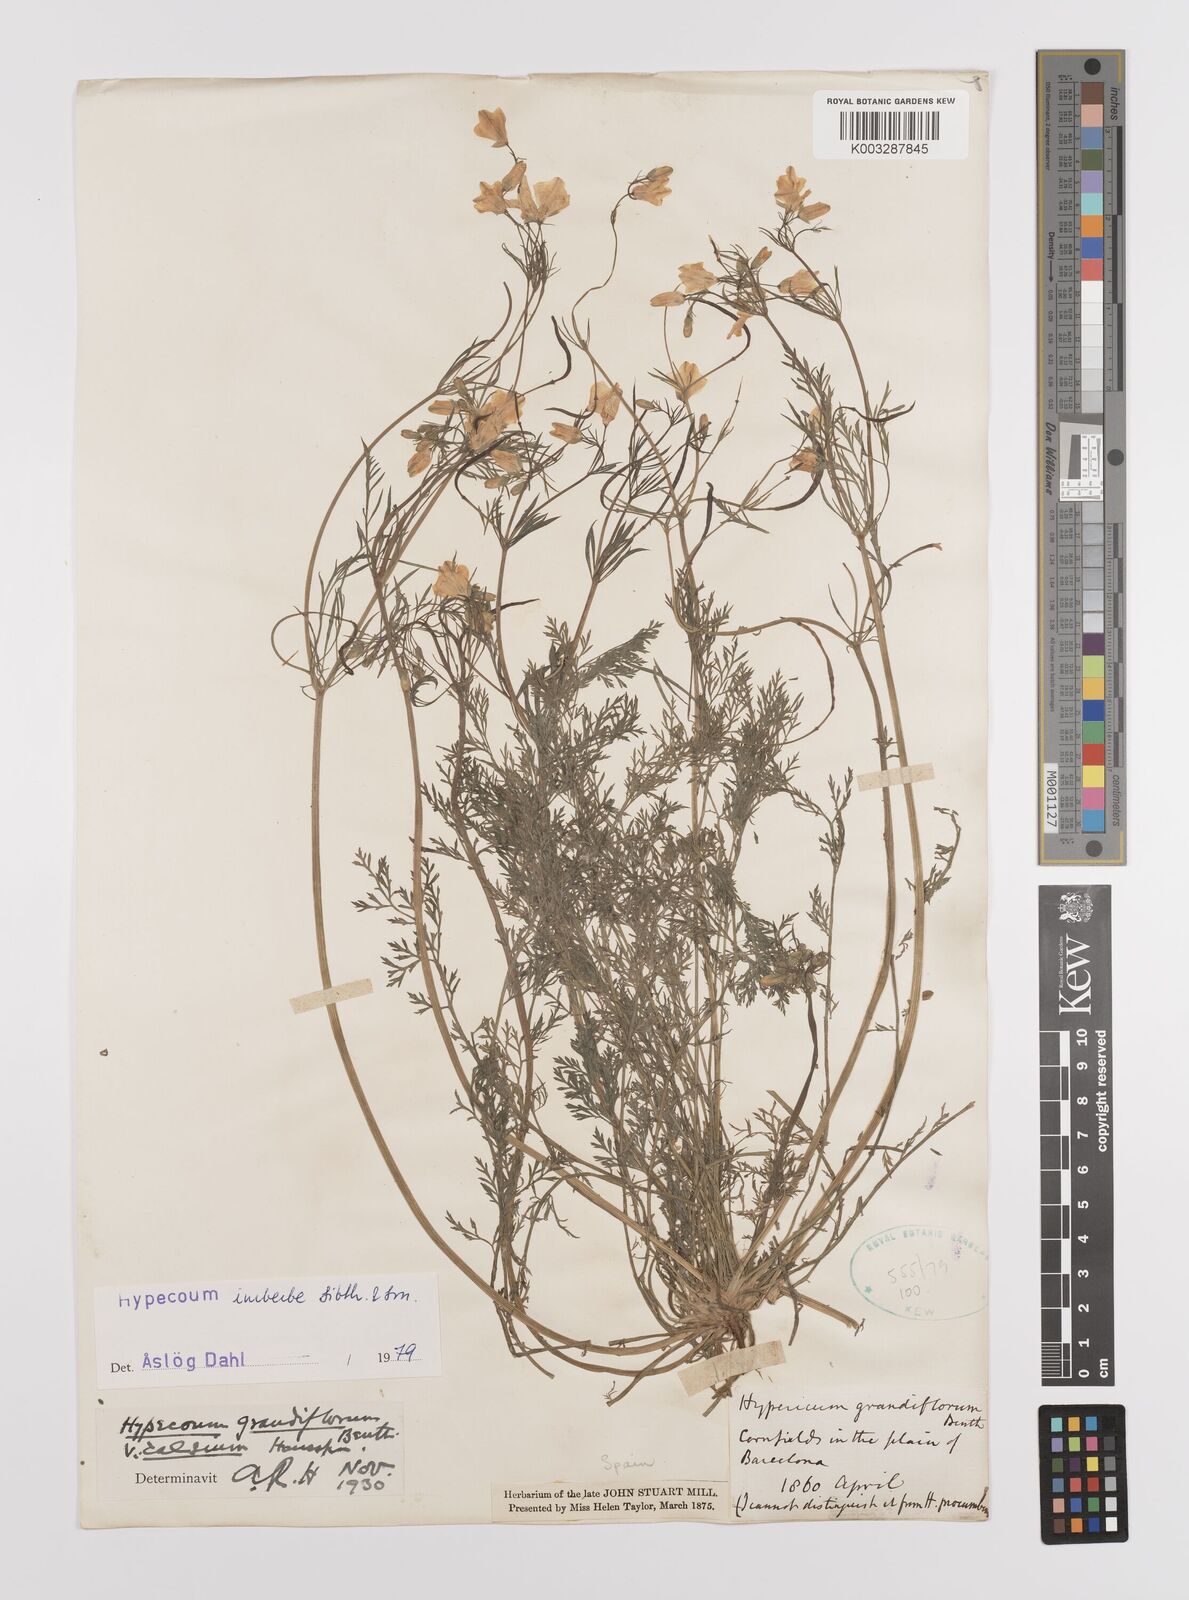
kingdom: Plantae
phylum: Tracheophyta
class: Magnoliopsida
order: Ranunculales
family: Papaveraceae
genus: Hypecoum
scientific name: Hypecoum imberbe
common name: Sicklefruit hypecoum
